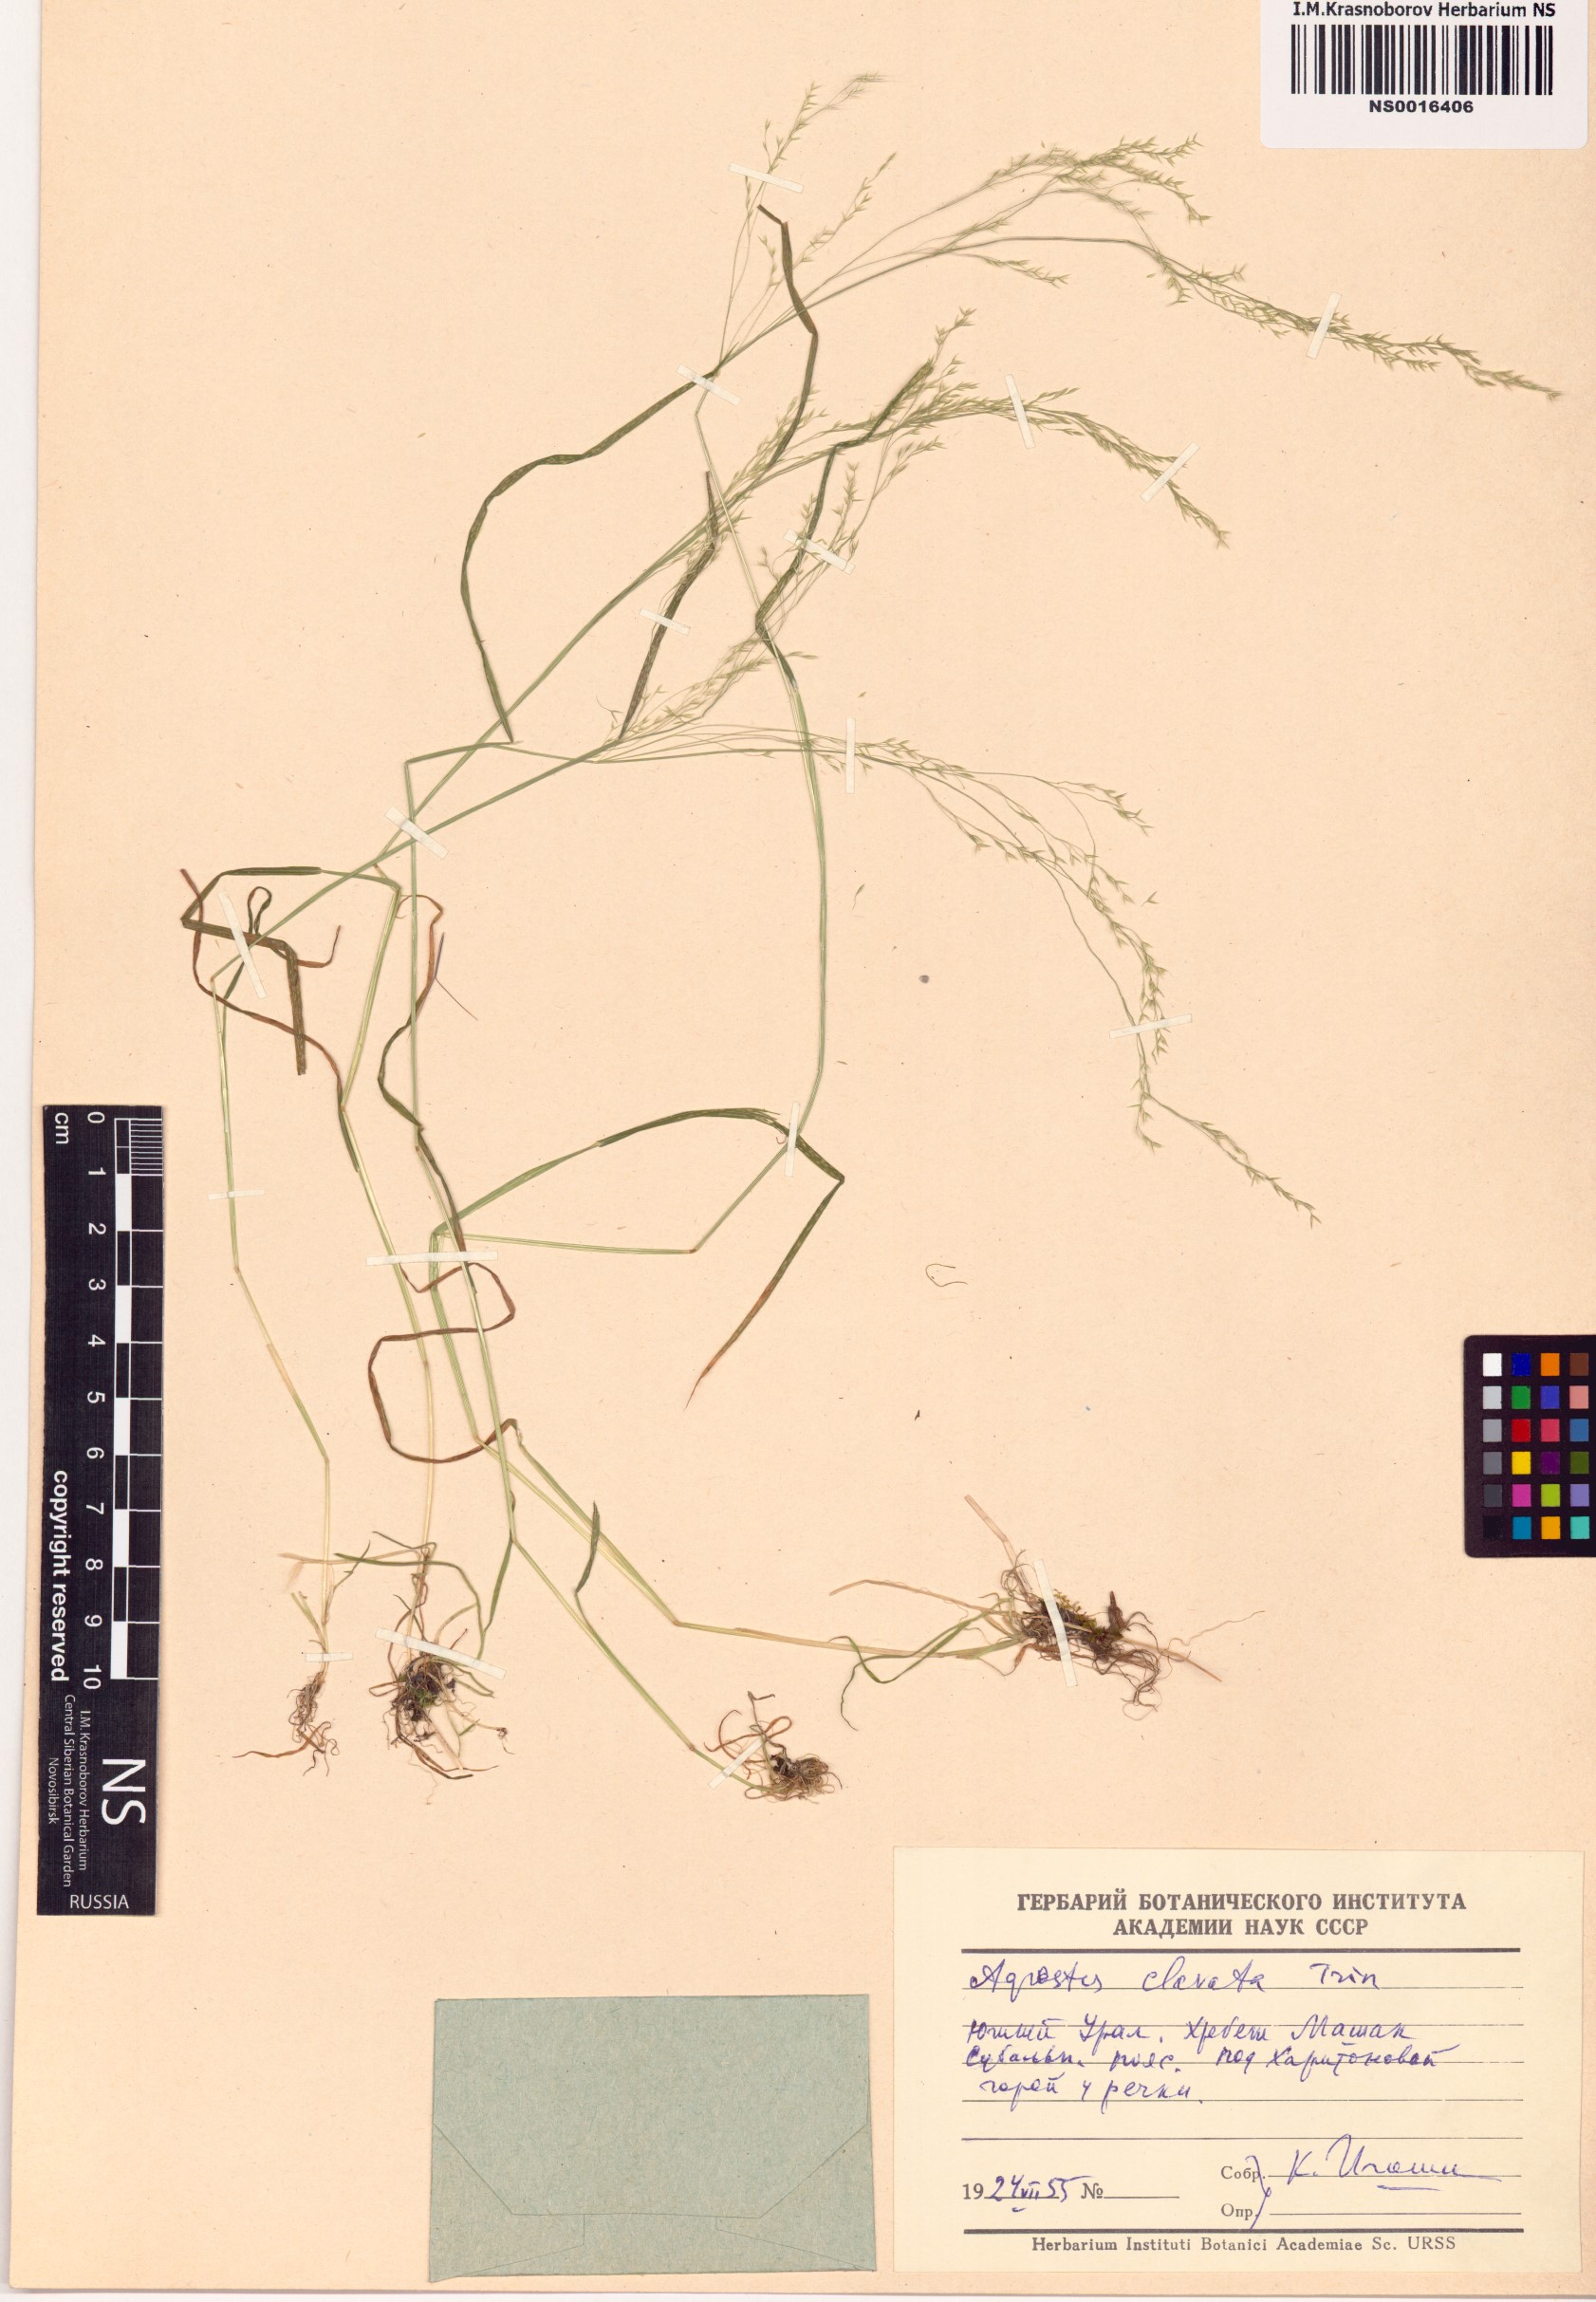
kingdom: Plantae
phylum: Tracheophyta
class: Liliopsida
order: Poales
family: Poaceae
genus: Agrostis
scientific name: Agrostis clavata
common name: Clavate bent
